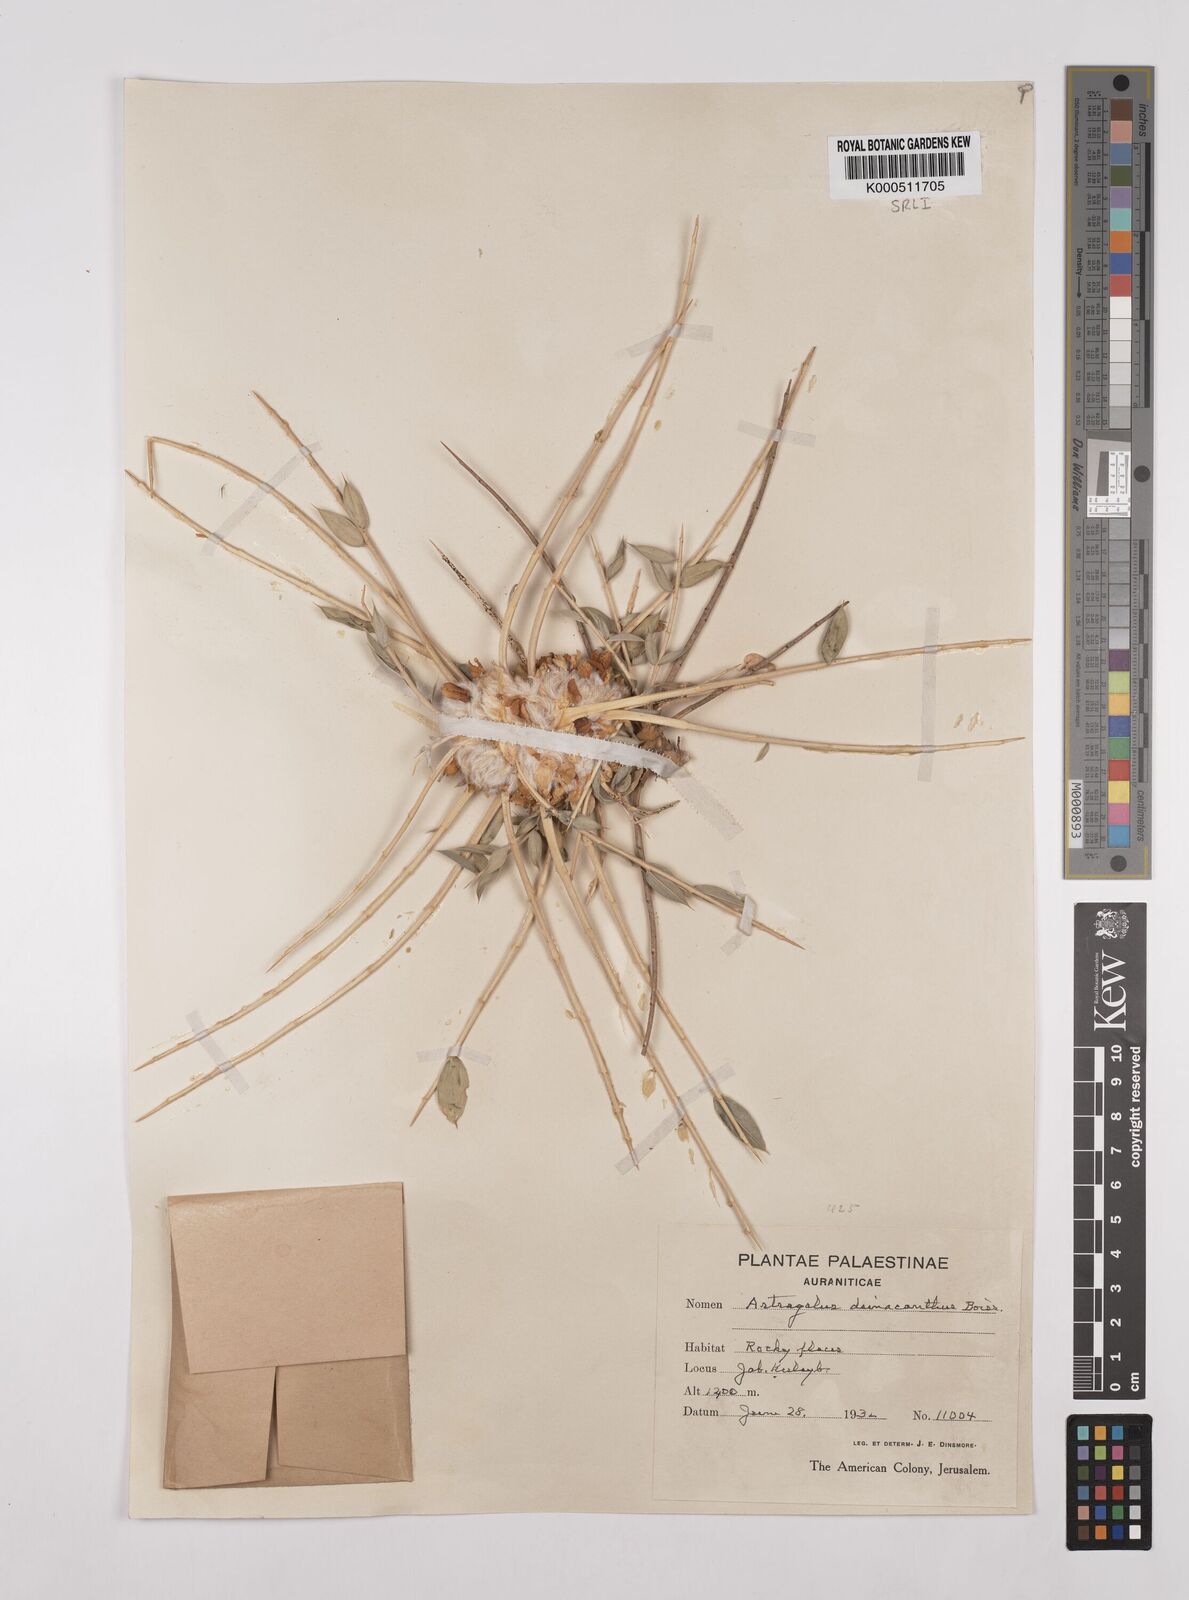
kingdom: Plantae
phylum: Tracheophyta
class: Magnoliopsida
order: Fabales
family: Fabaceae
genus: Astragalus
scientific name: Astragalus oleifolius
